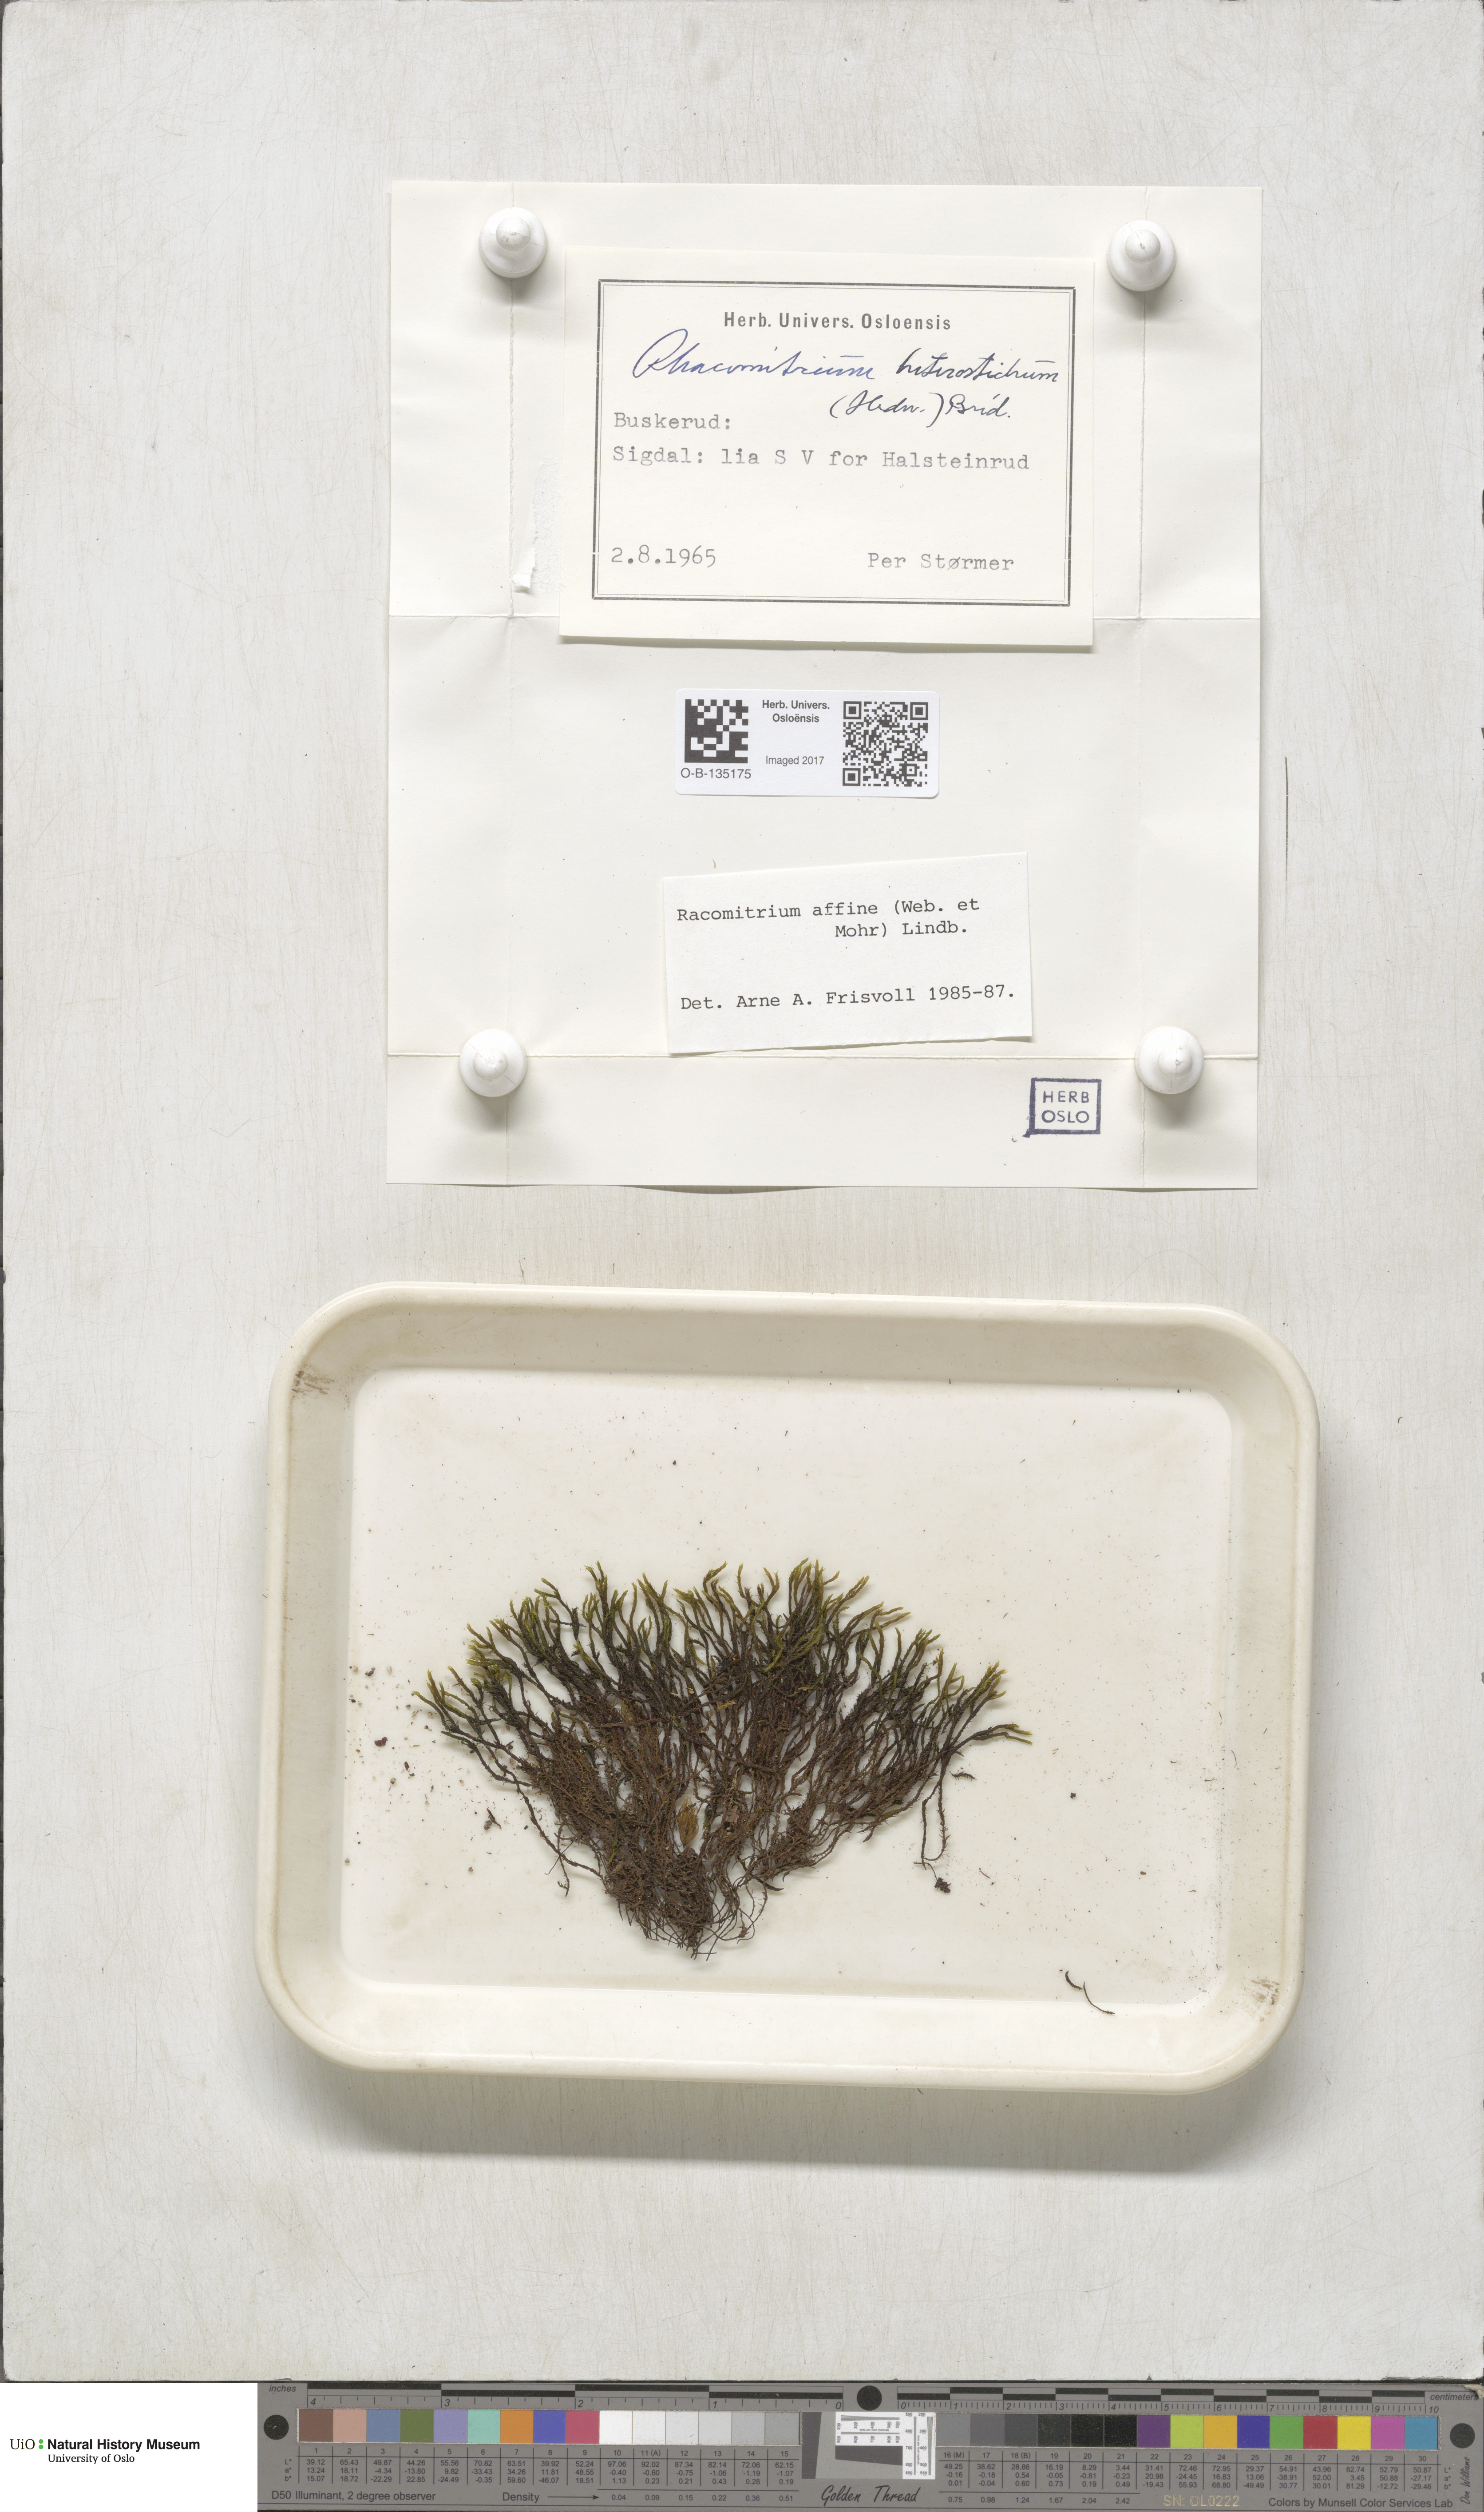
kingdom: Plantae
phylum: Bryophyta
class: Bryopsida
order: Grimmiales
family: Grimmiaceae
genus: Bucklandiella
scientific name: Bucklandiella affinis
